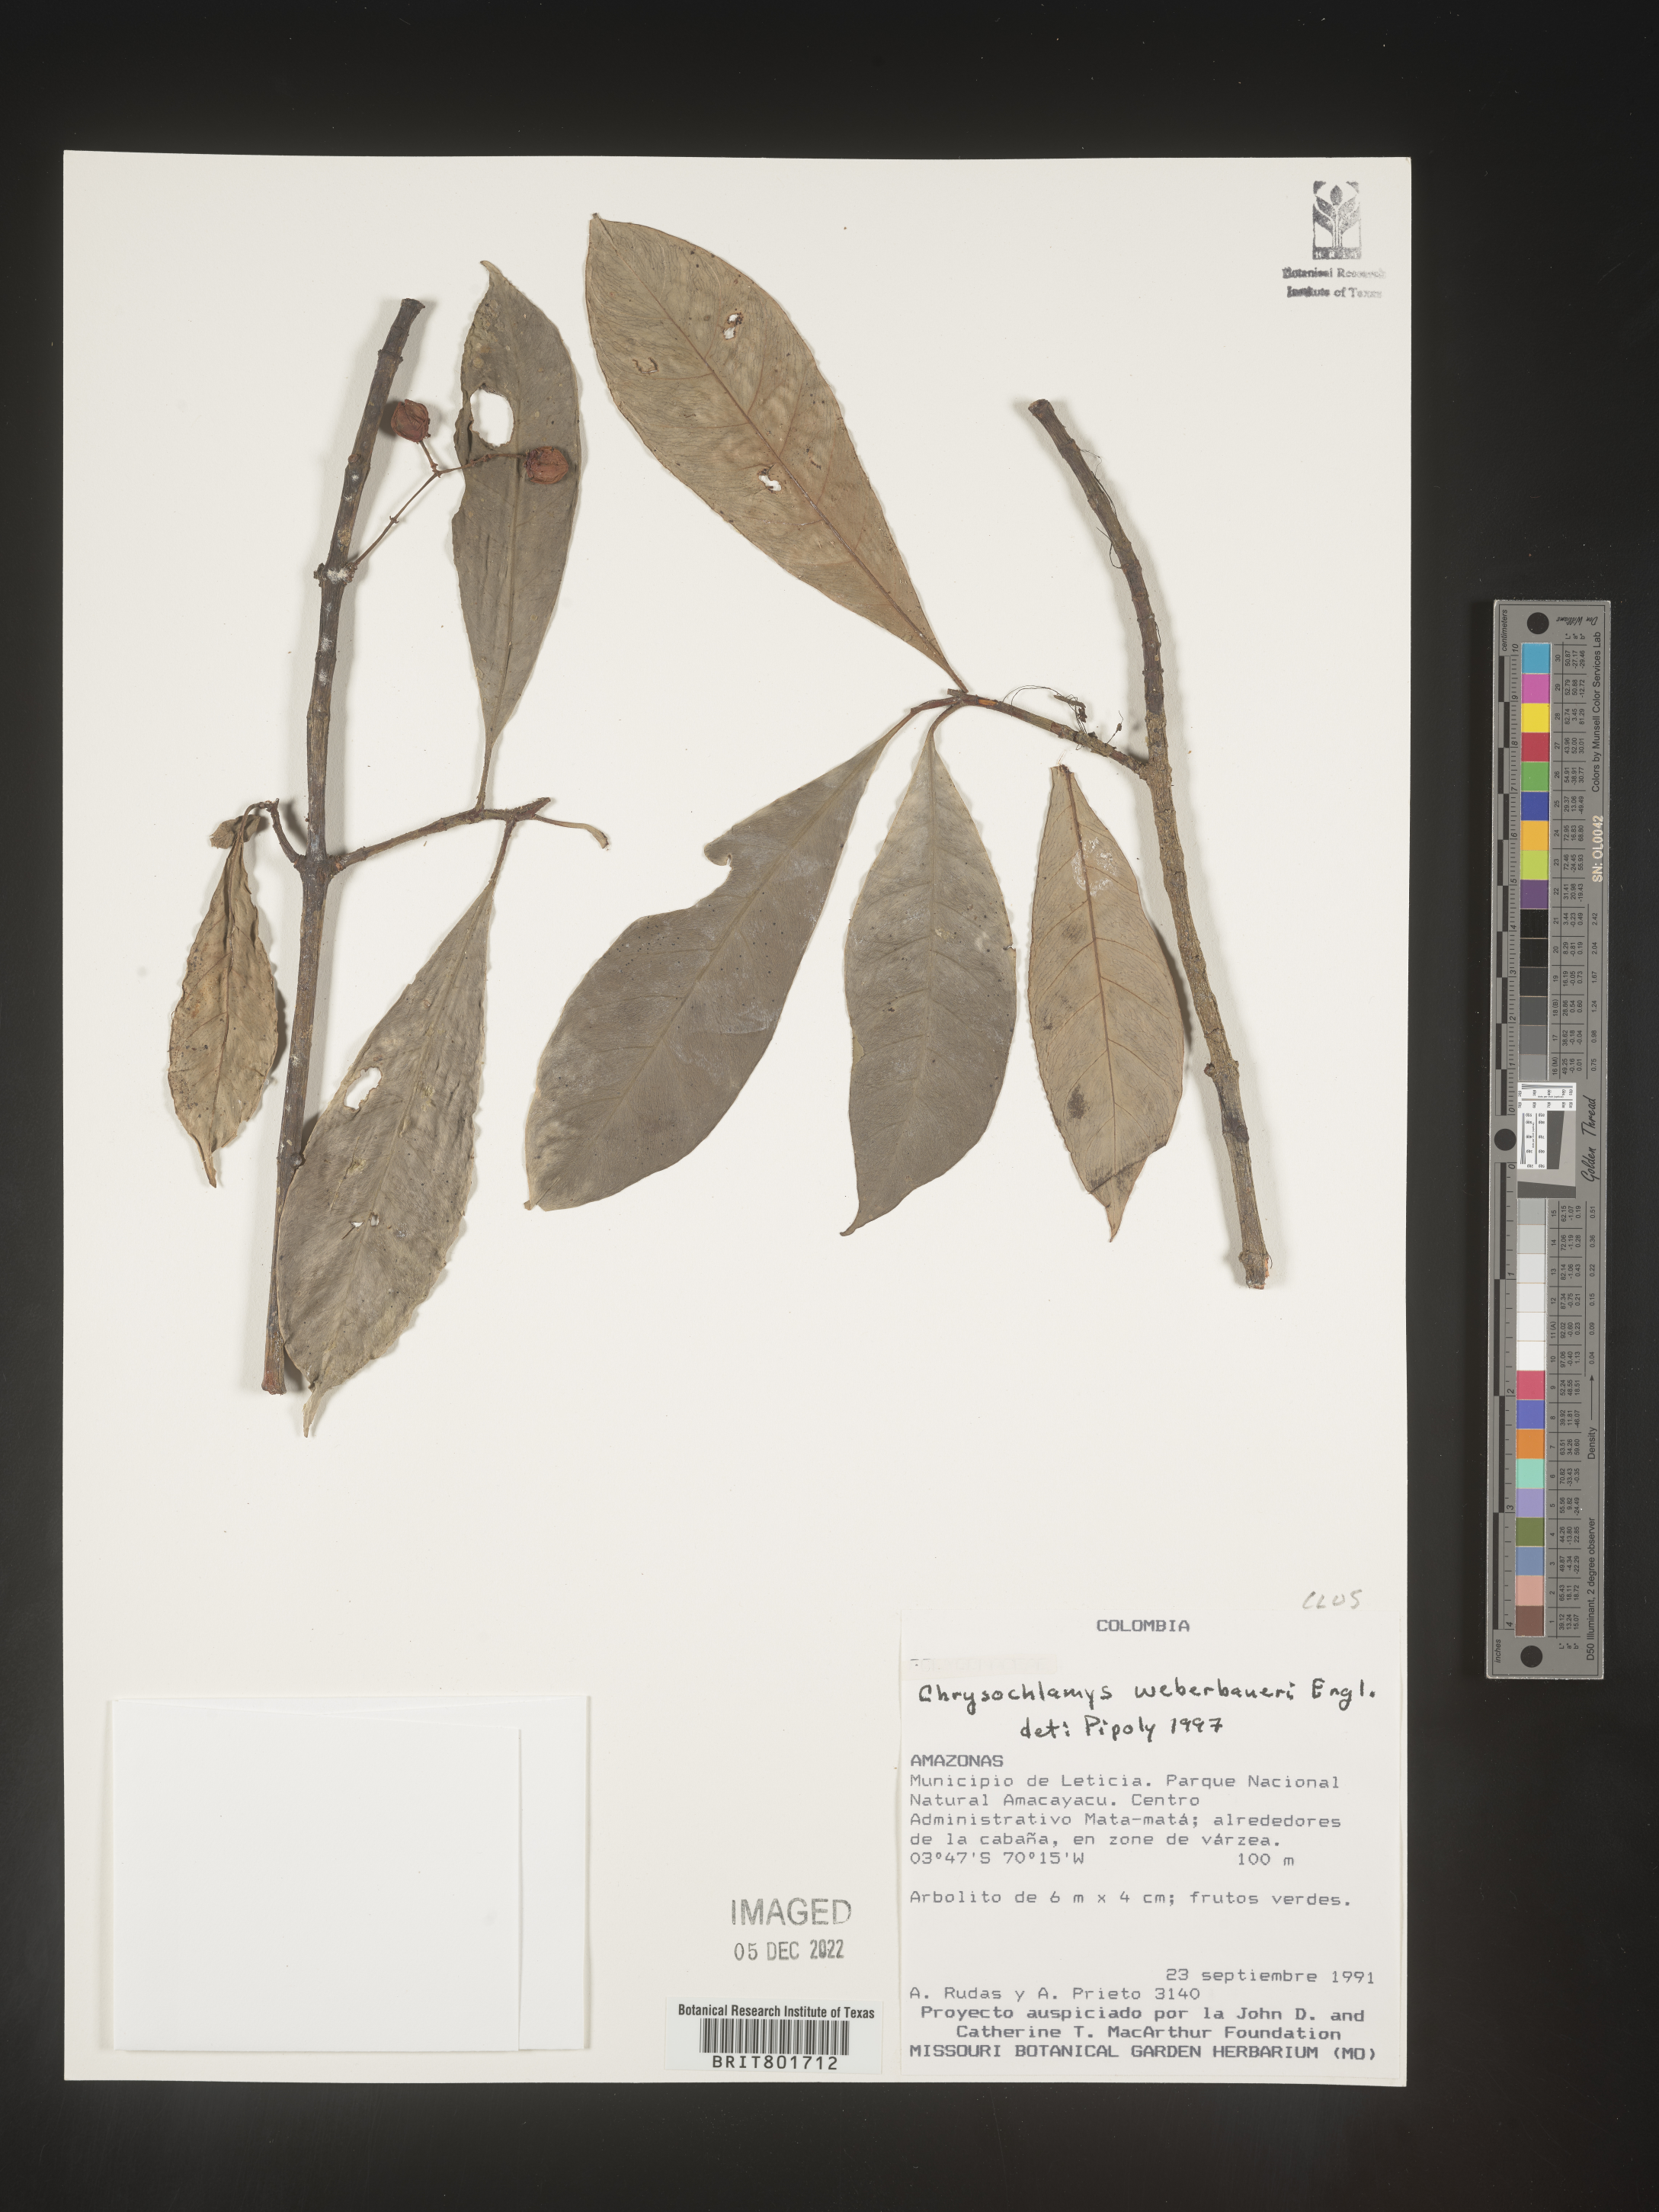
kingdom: Plantae
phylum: Tracheophyta
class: Magnoliopsida
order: Malpighiales
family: Clusiaceae
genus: Chrysochlamys
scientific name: Chrysochlamys
